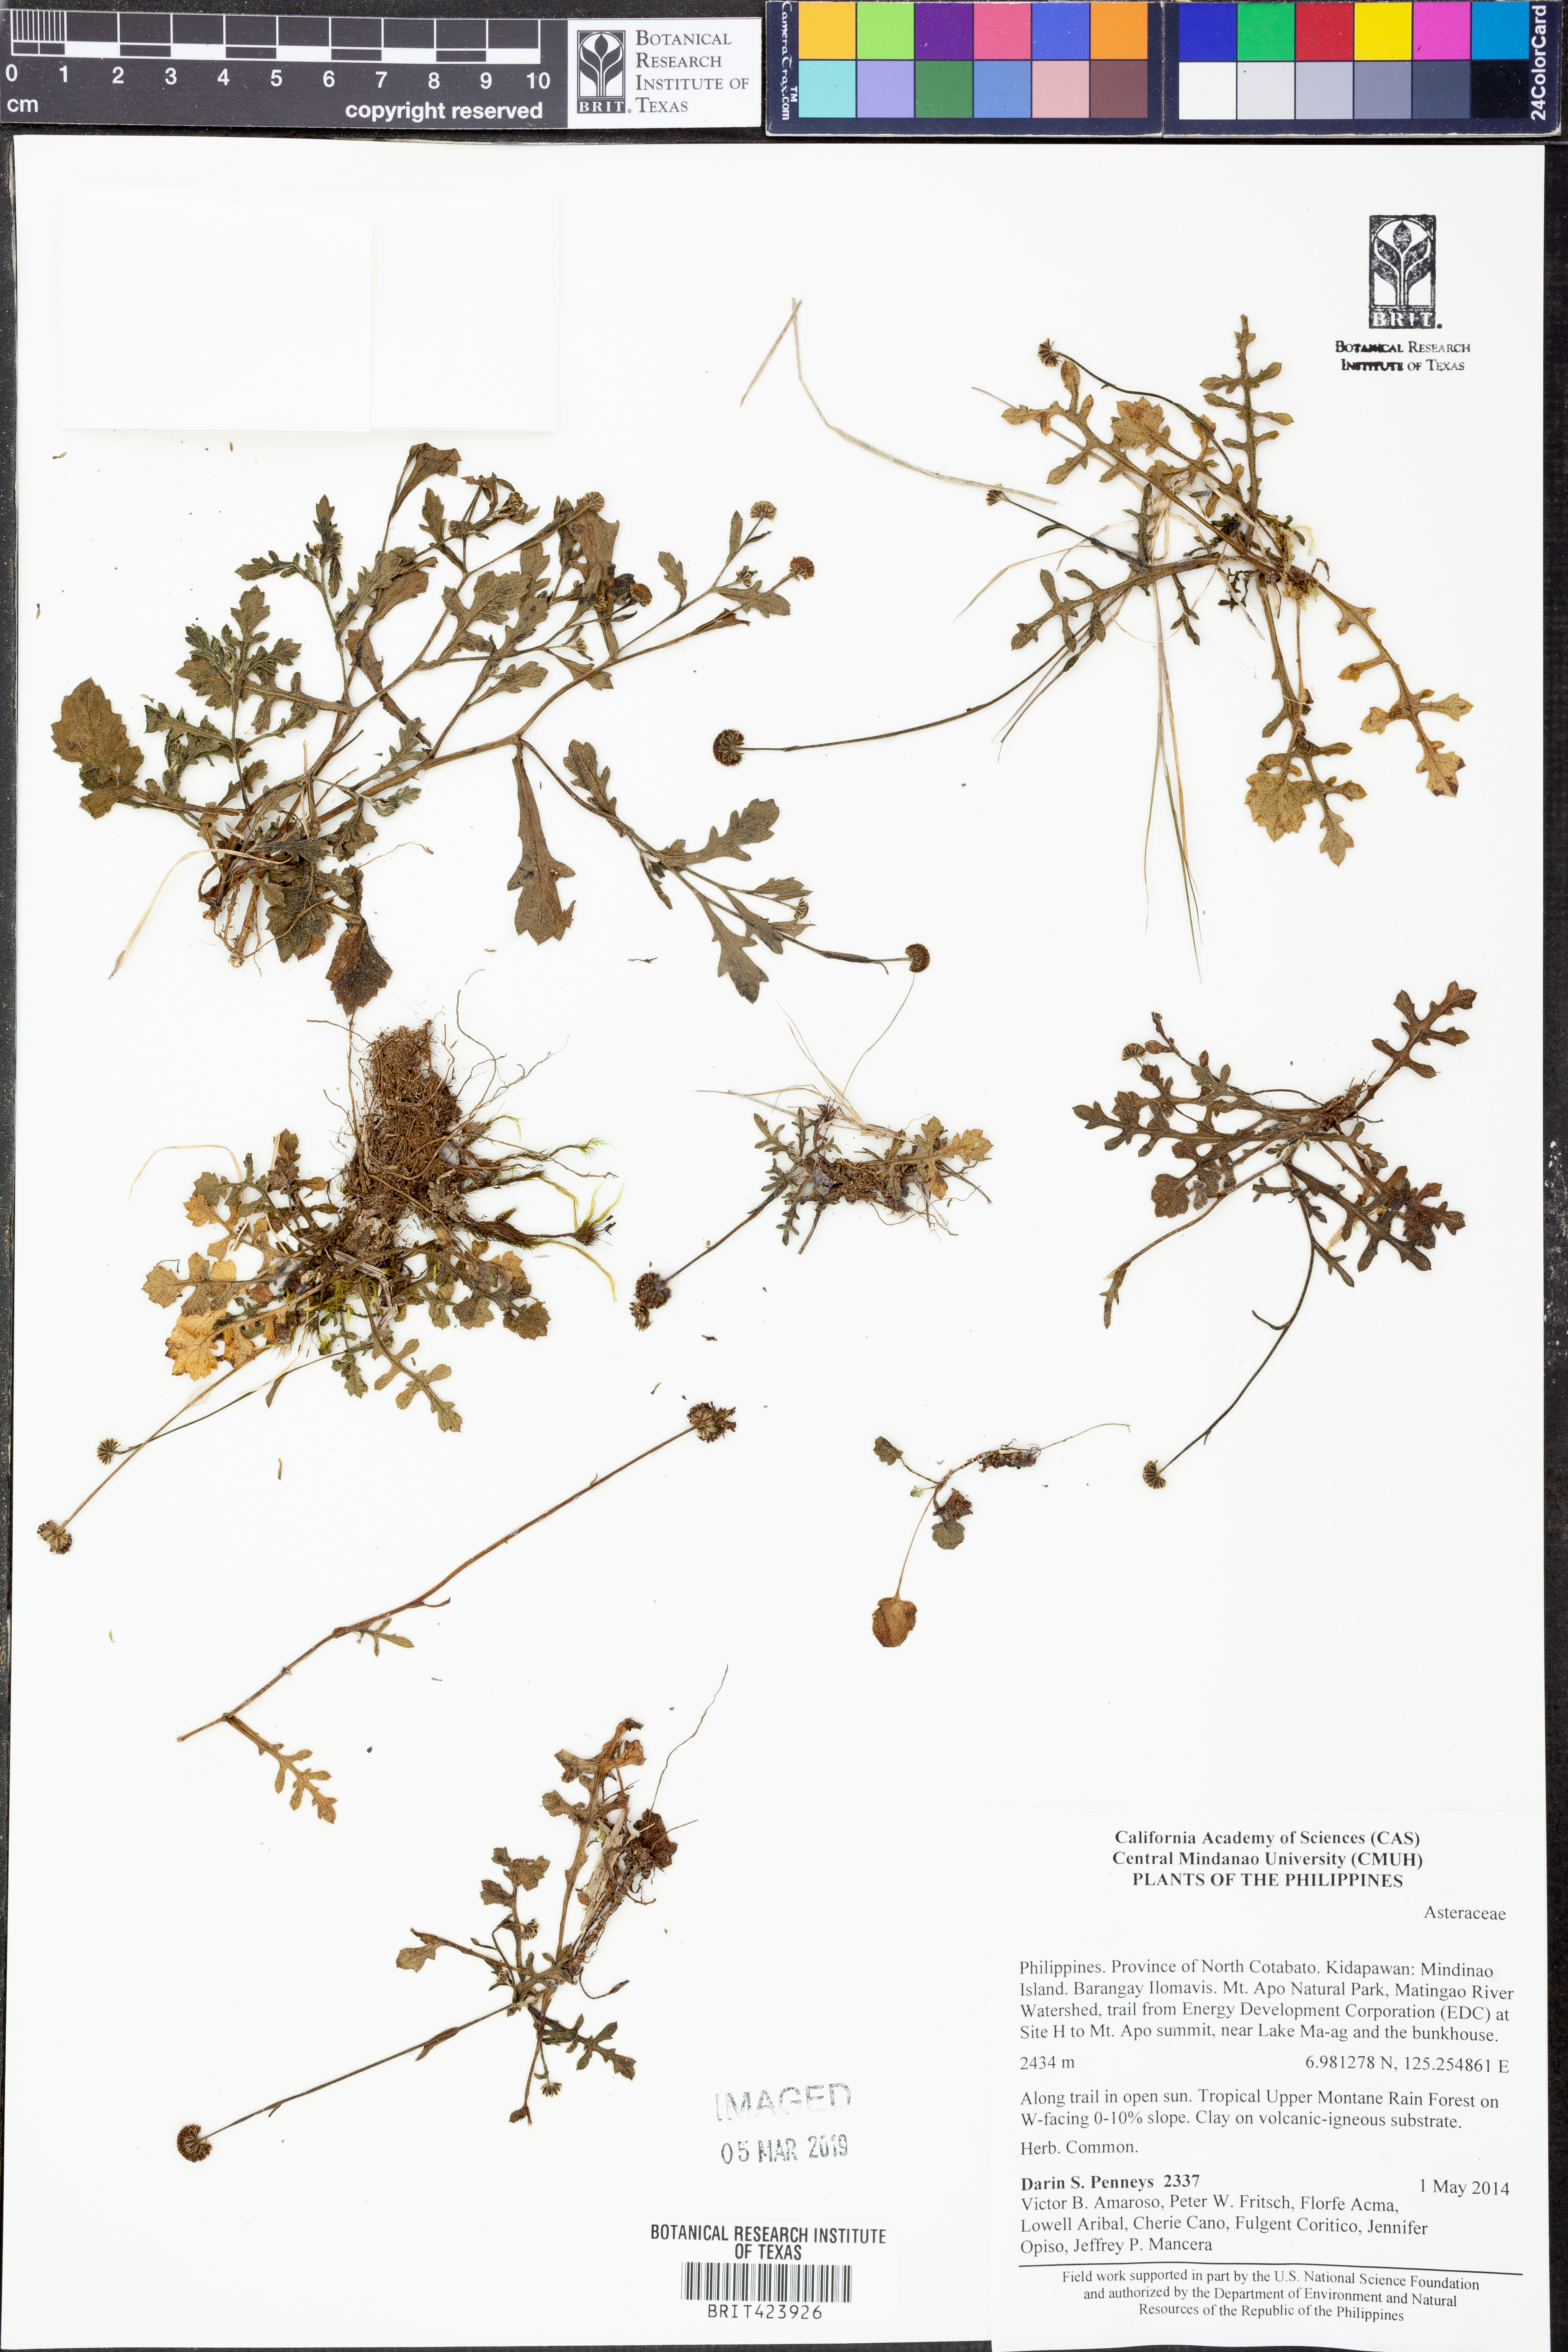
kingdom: Plantae
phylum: Tracheophyta
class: Magnoliopsida
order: Asterales
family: Asteraceae
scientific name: Asteraceae
